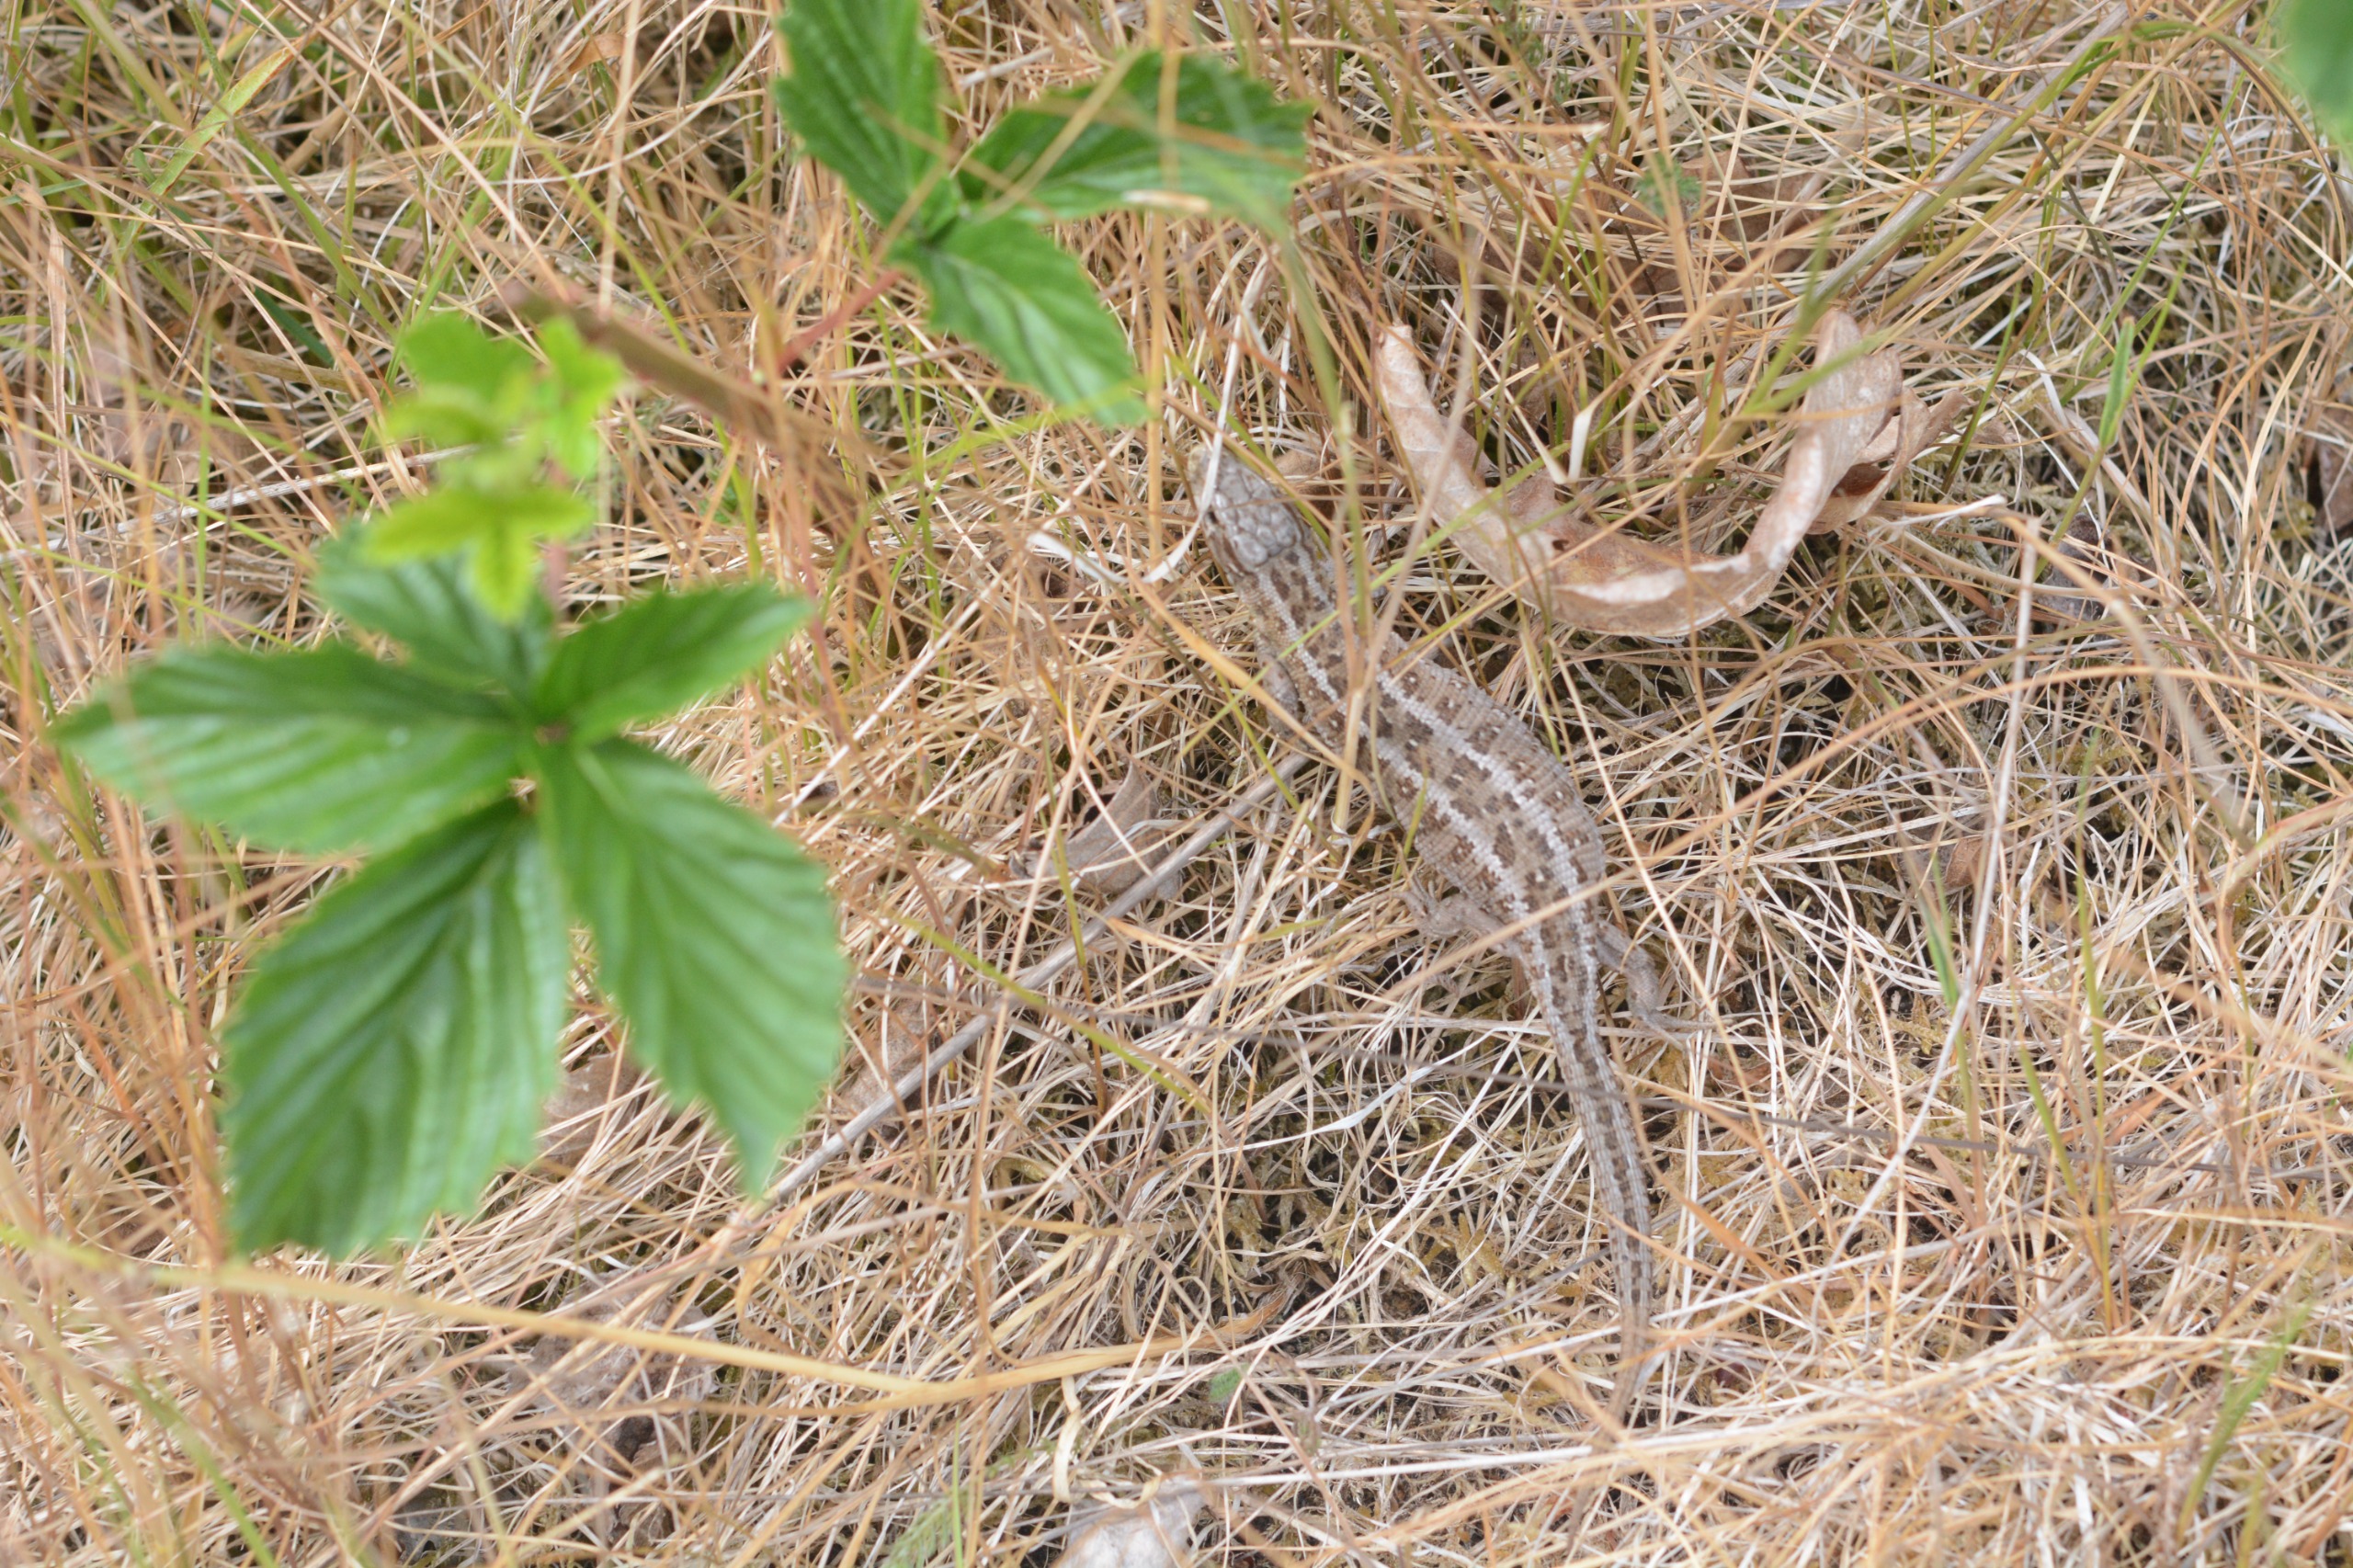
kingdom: Animalia
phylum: Chordata
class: Squamata
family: Lacertidae
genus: Lacerta
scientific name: Lacerta agilis
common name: Markfirben
